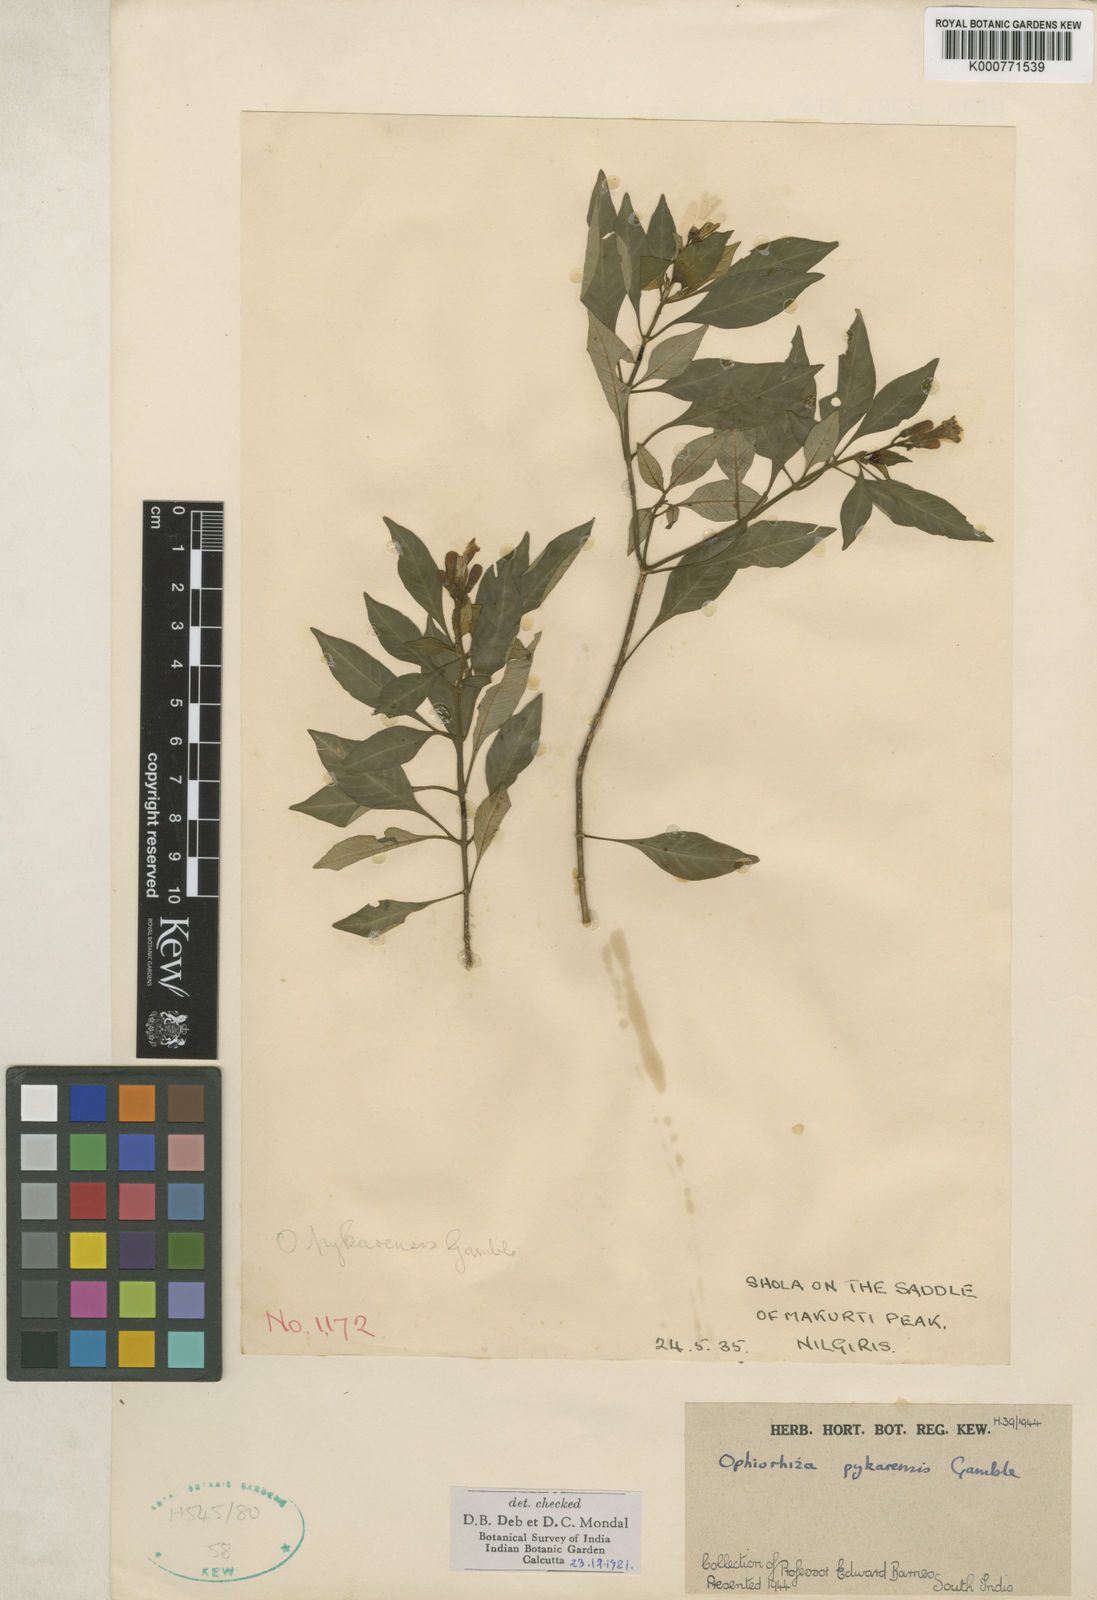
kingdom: Plantae
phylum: Tracheophyta
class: Magnoliopsida
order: Gentianales
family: Rubiaceae
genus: Ophiorrhiza
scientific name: Ophiorrhiza pykarensis
